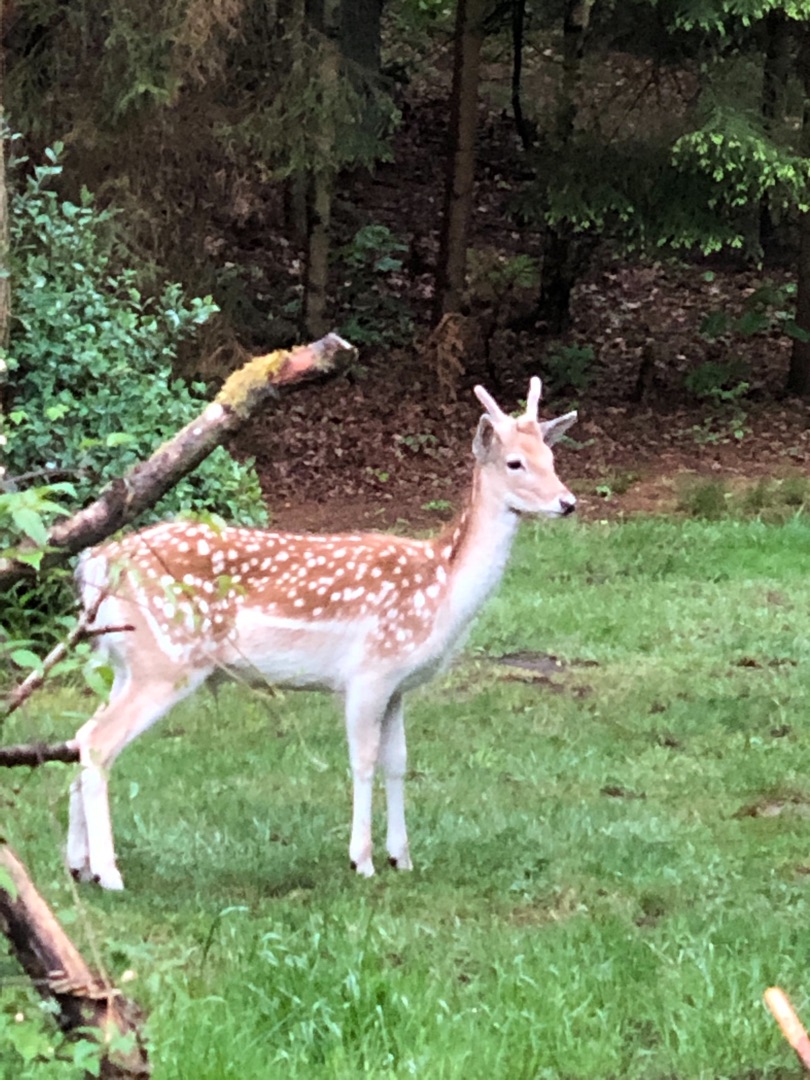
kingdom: Animalia
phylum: Chordata
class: Mammalia
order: Artiodactyla
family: Cervidae
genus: Dama
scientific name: Dama dama
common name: Dådyr
